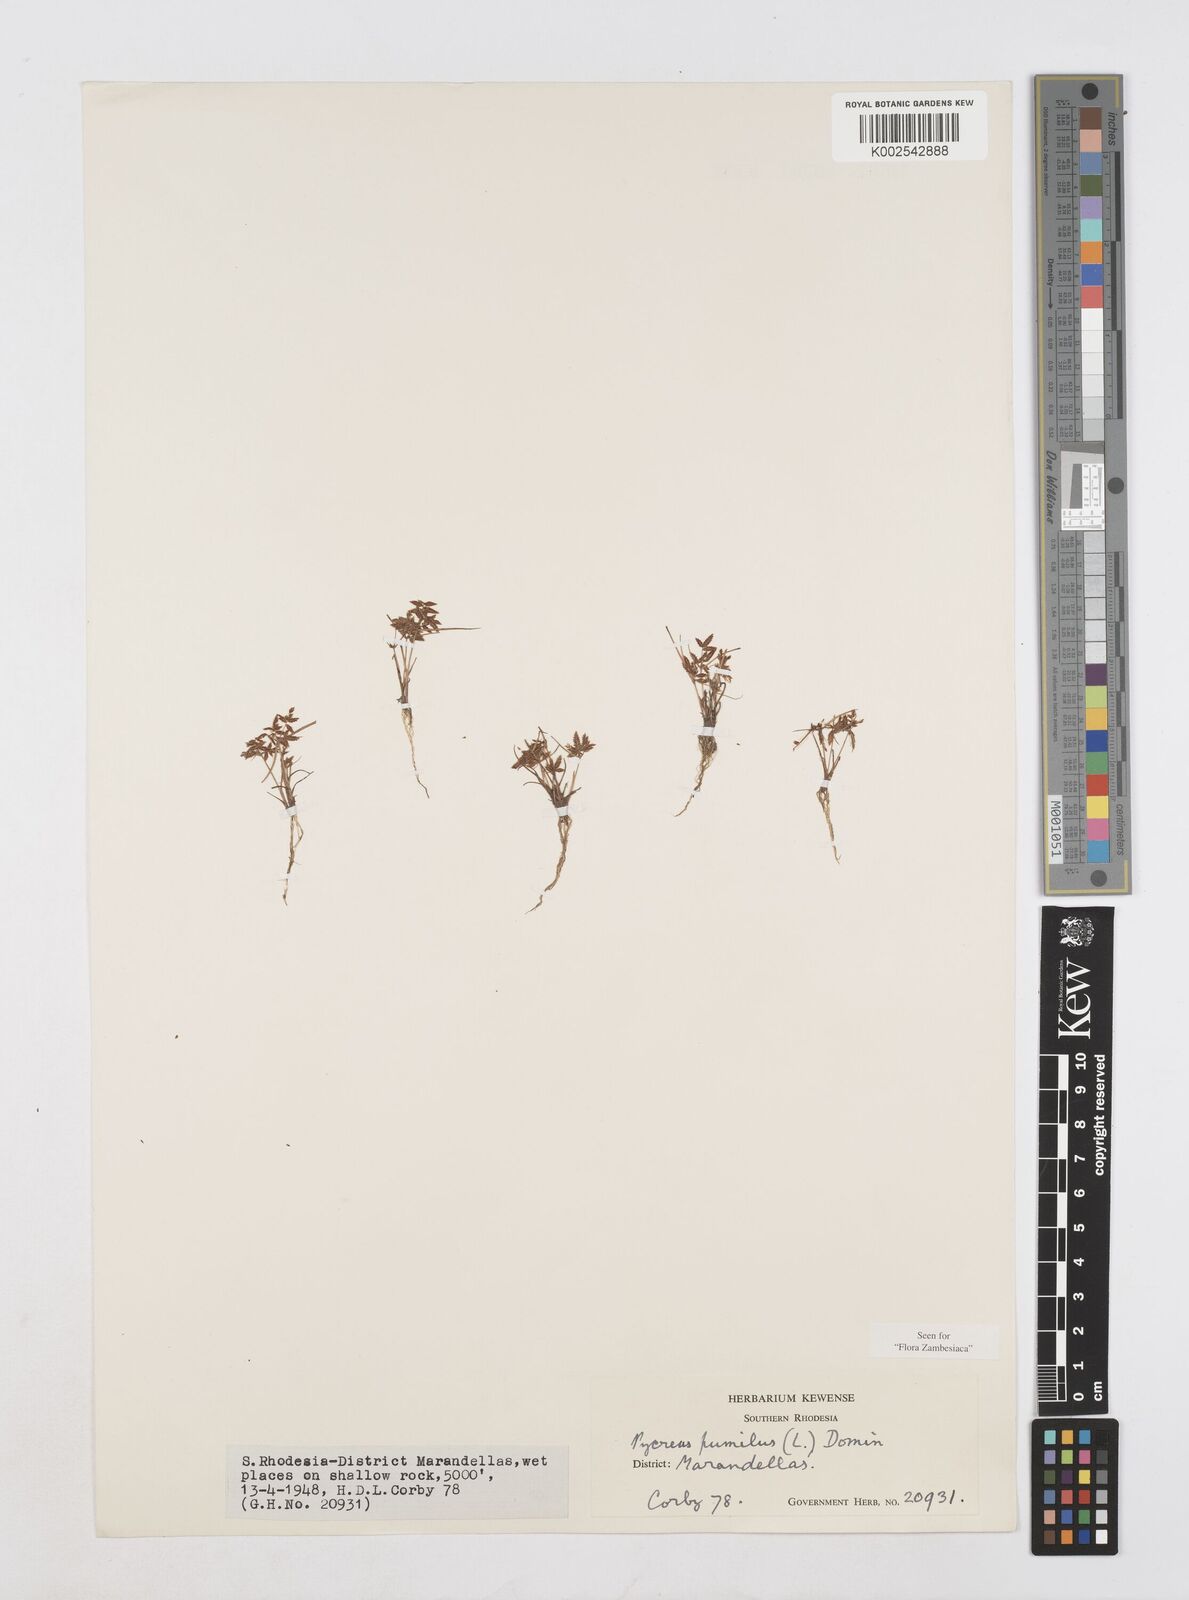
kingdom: Plantae
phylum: Tracheophyta
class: Liliopsida
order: Poales
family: Cyperaceae
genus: Cyperus
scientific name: Cyperus pumilus
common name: Low flatsedge
